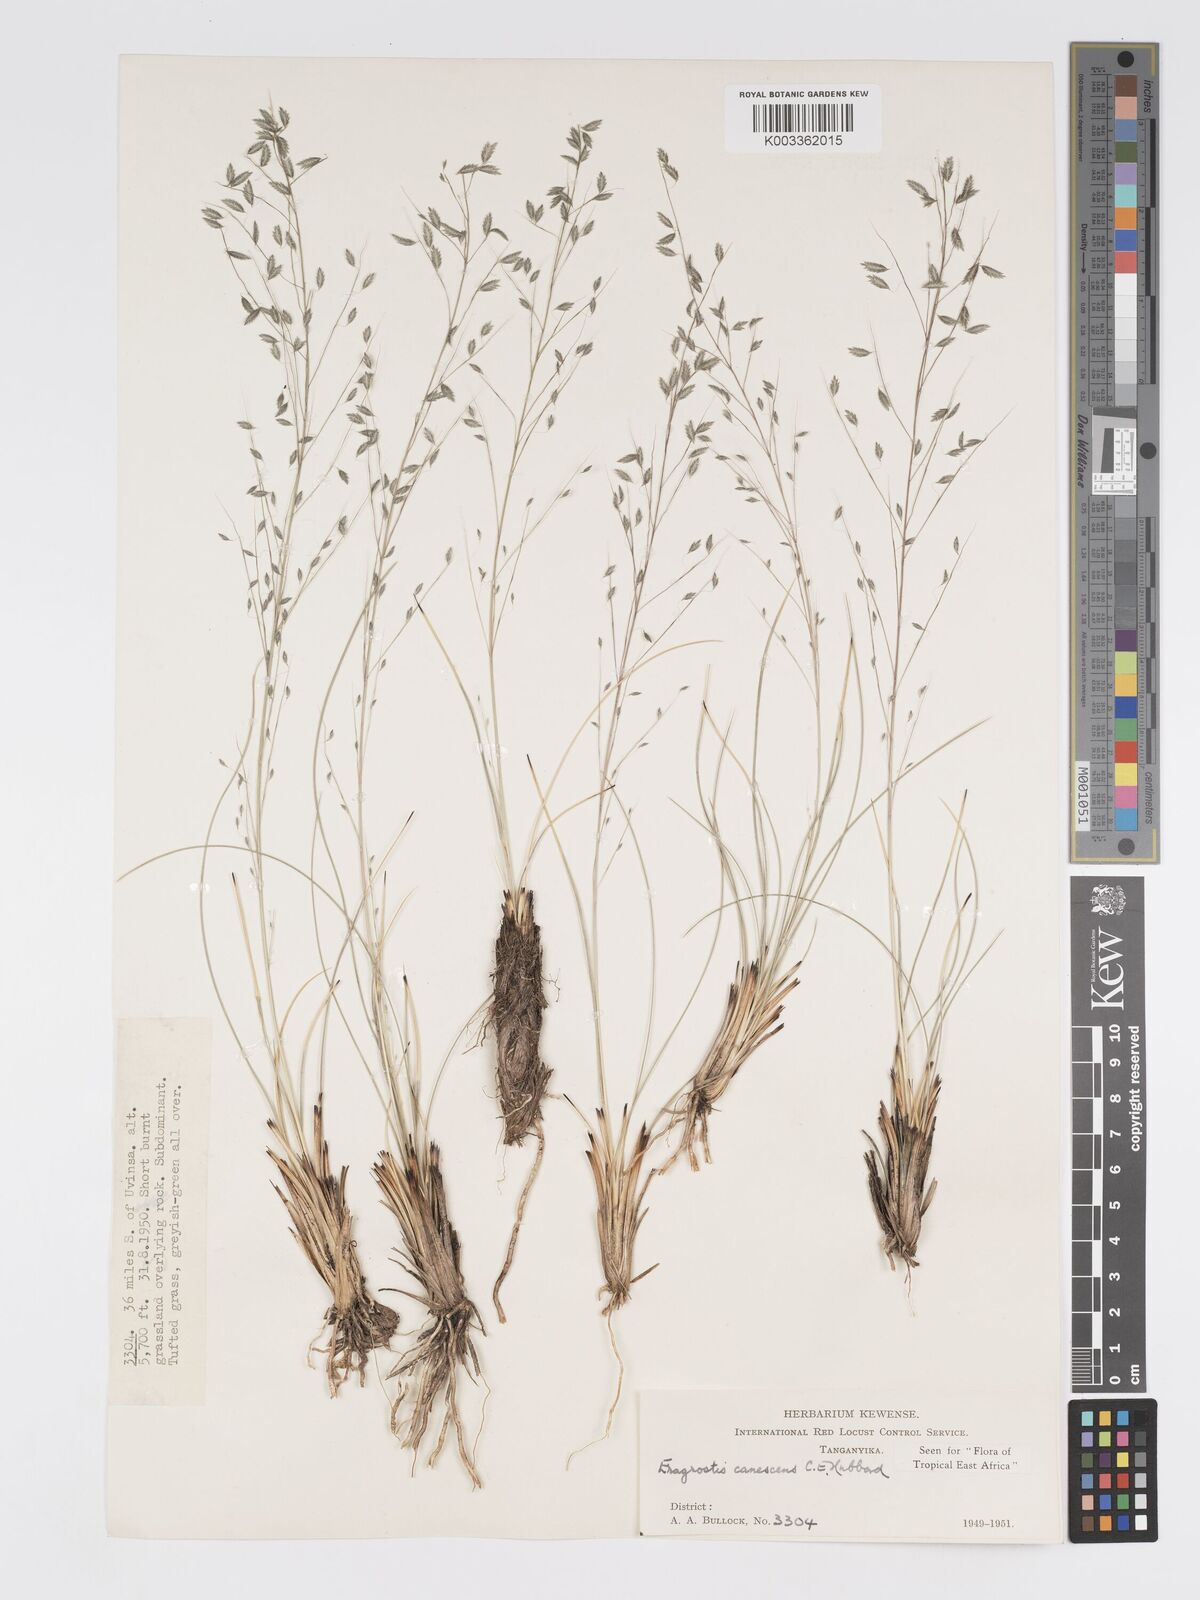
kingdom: Plantae
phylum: Tracheophyta
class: Liliopsida
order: Poales
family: Poaceae
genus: Eragrostis
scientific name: Eragrostis canescens
